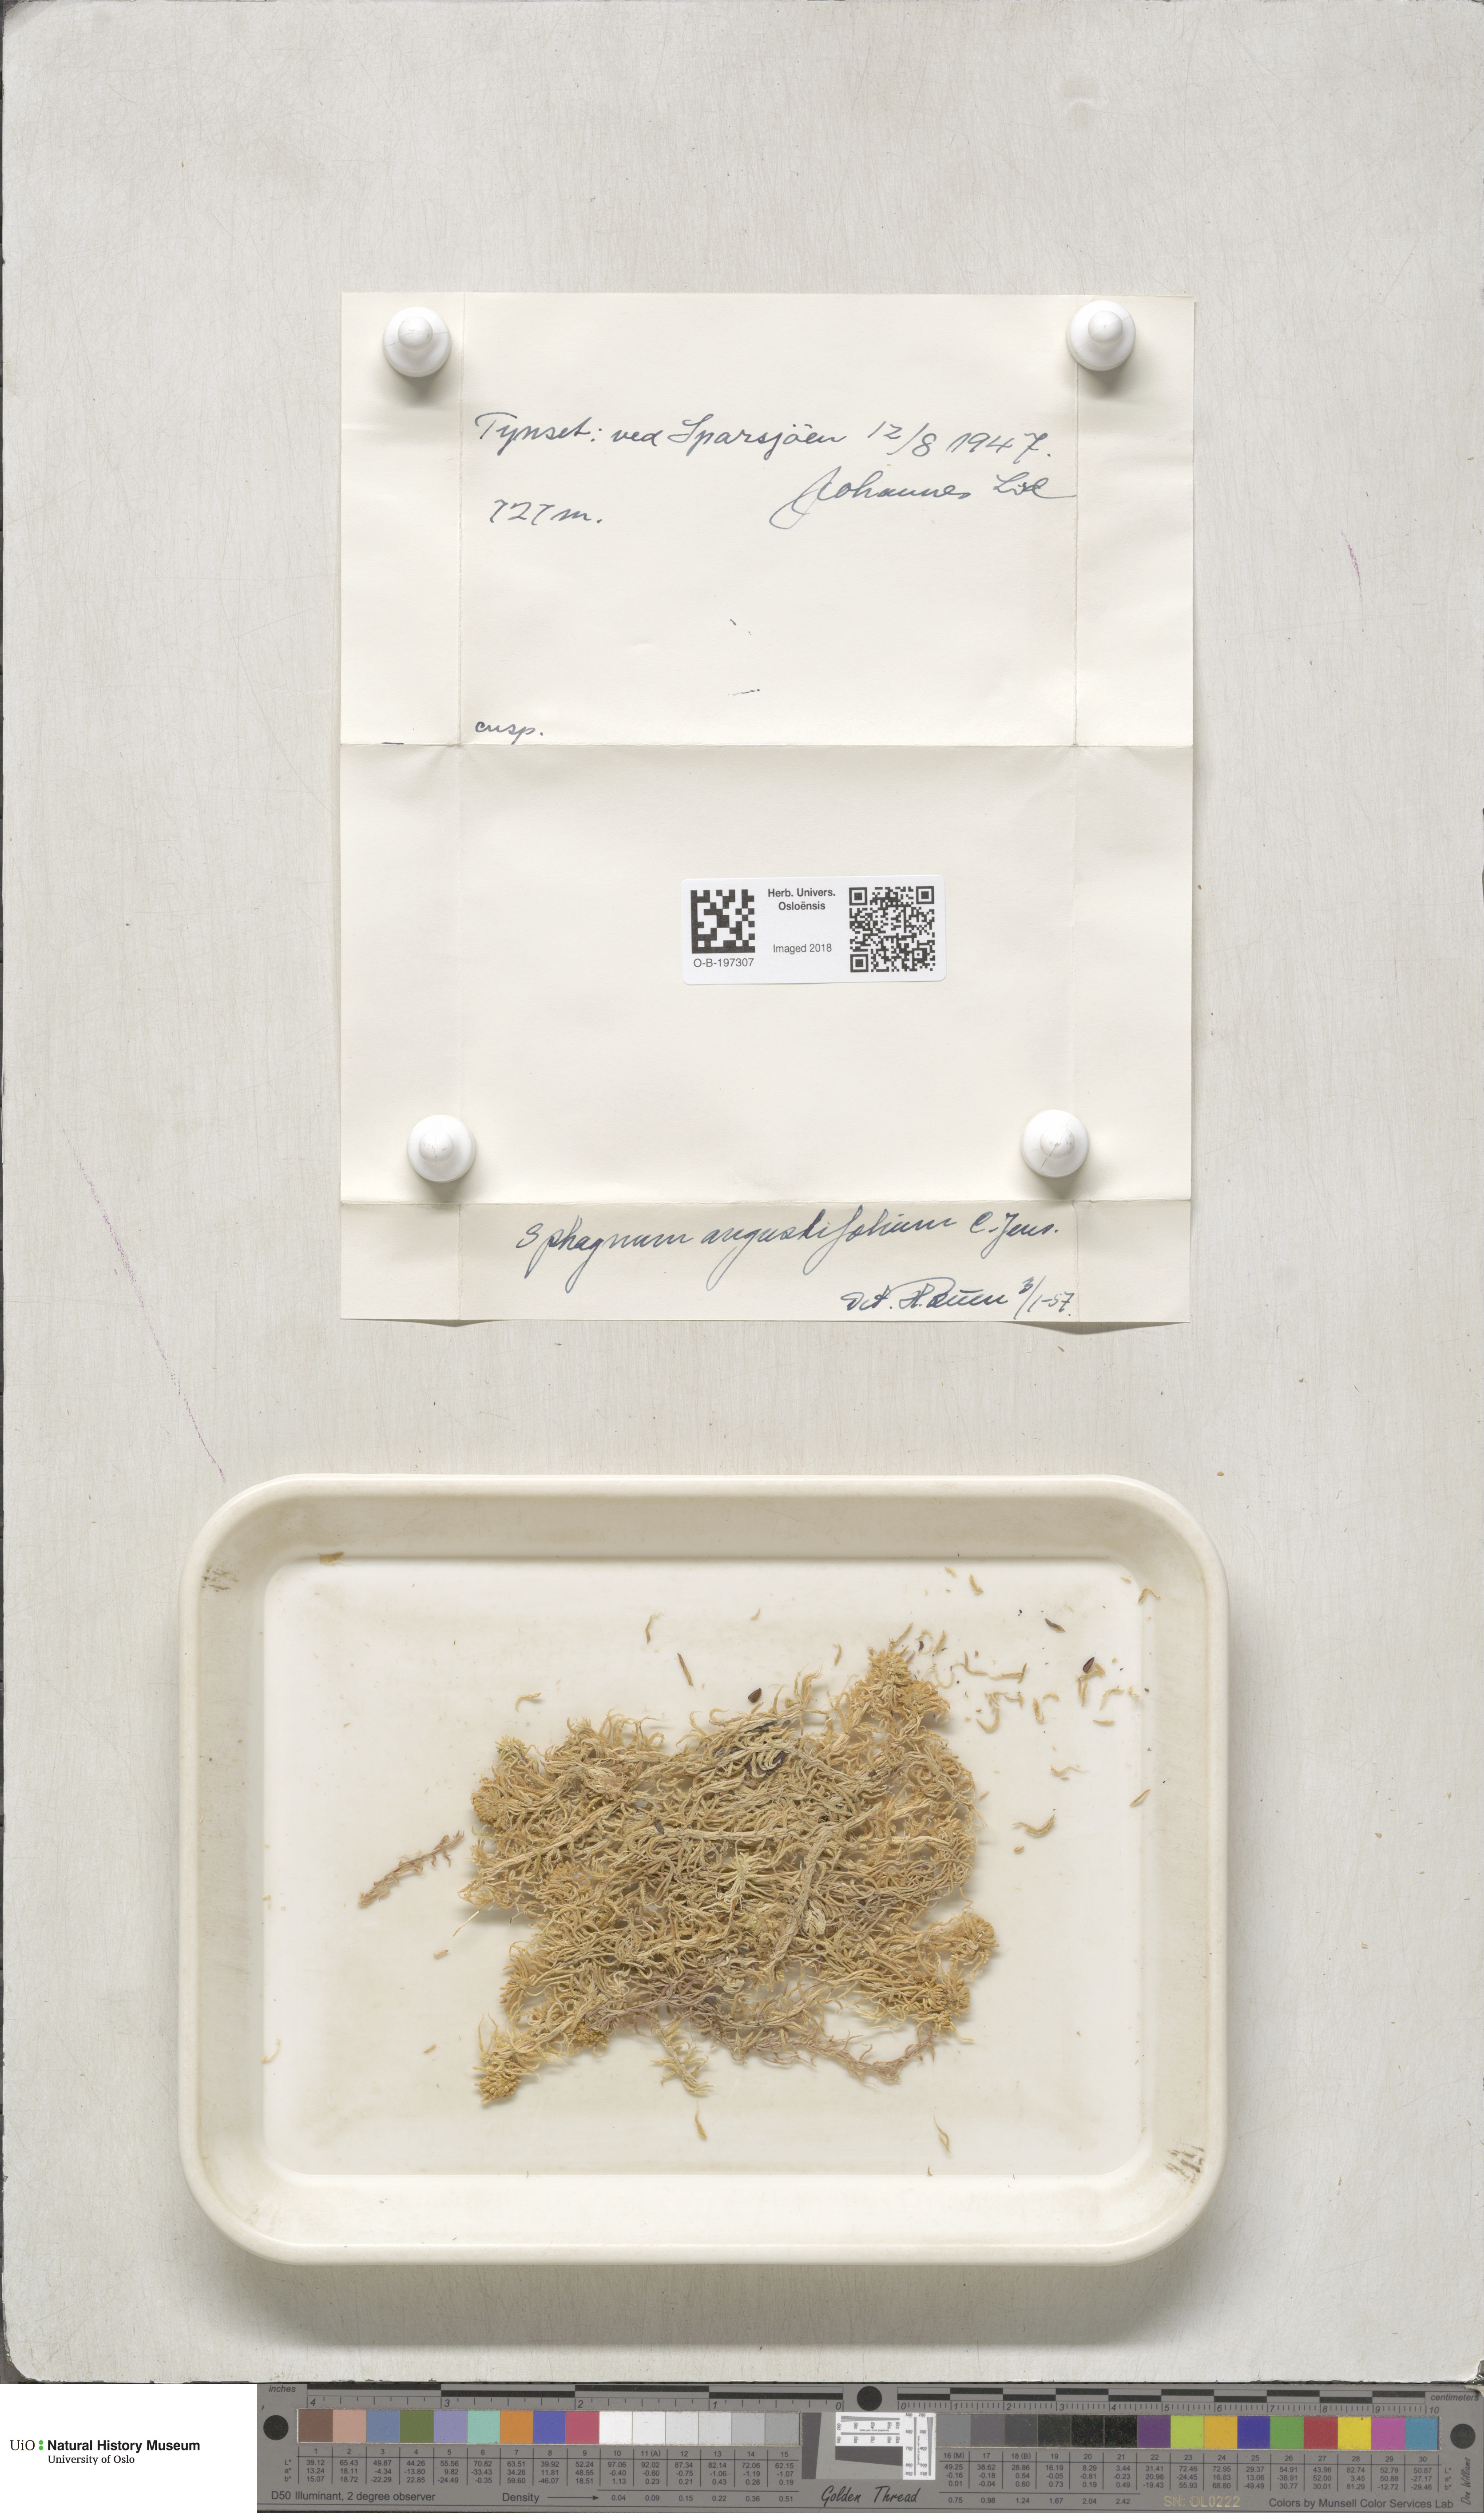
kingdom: Plantae
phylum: Bryophyta
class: Sphagnopsida
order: Sphagnales
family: Sphagnaceae
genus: Sphagnum
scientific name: Sphagnum angustifolium
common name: Narrow-leaved peat moss
